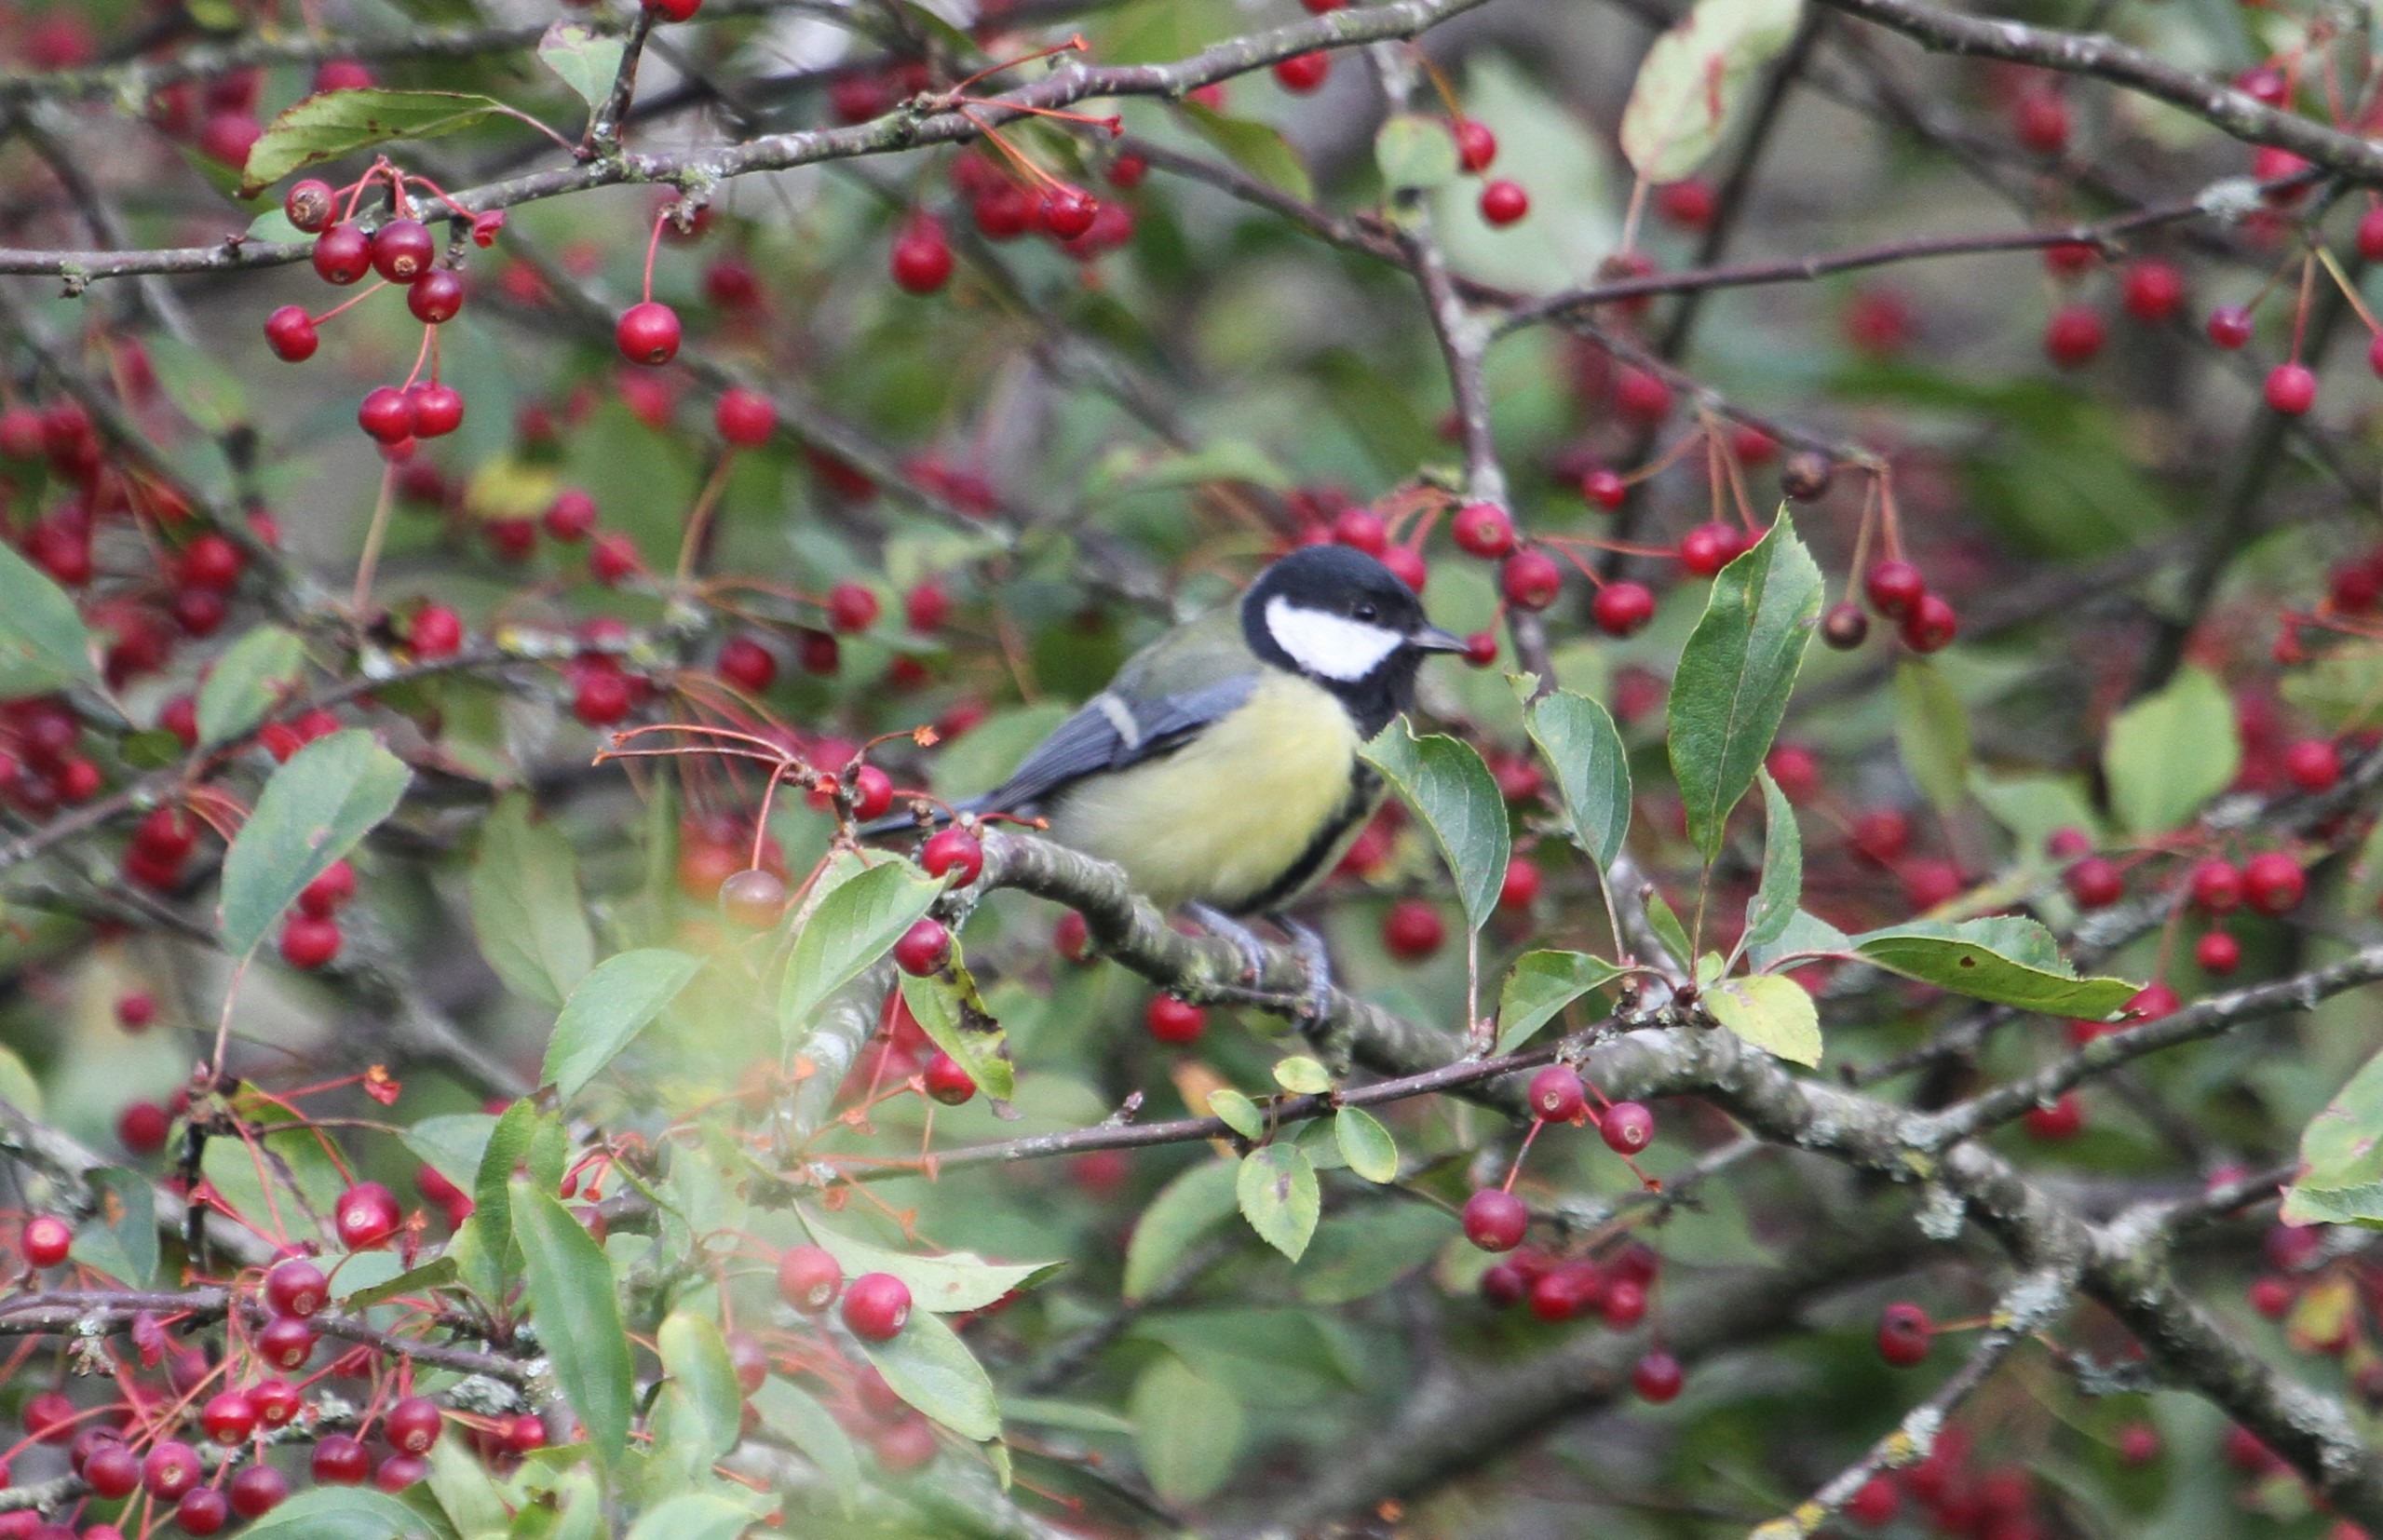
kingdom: Animalia
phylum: Chordata
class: Aves
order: Passeriformes
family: Paridae
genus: Parus
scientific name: Parus major
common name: Musvit
